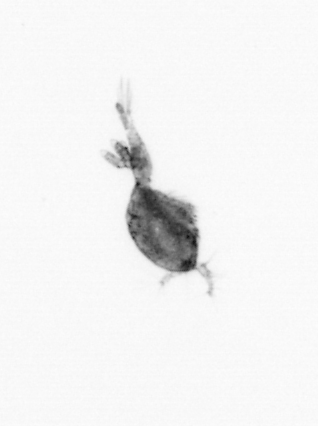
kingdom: Animalia
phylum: Arthropoda
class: Copepoda
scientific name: Copepoda
